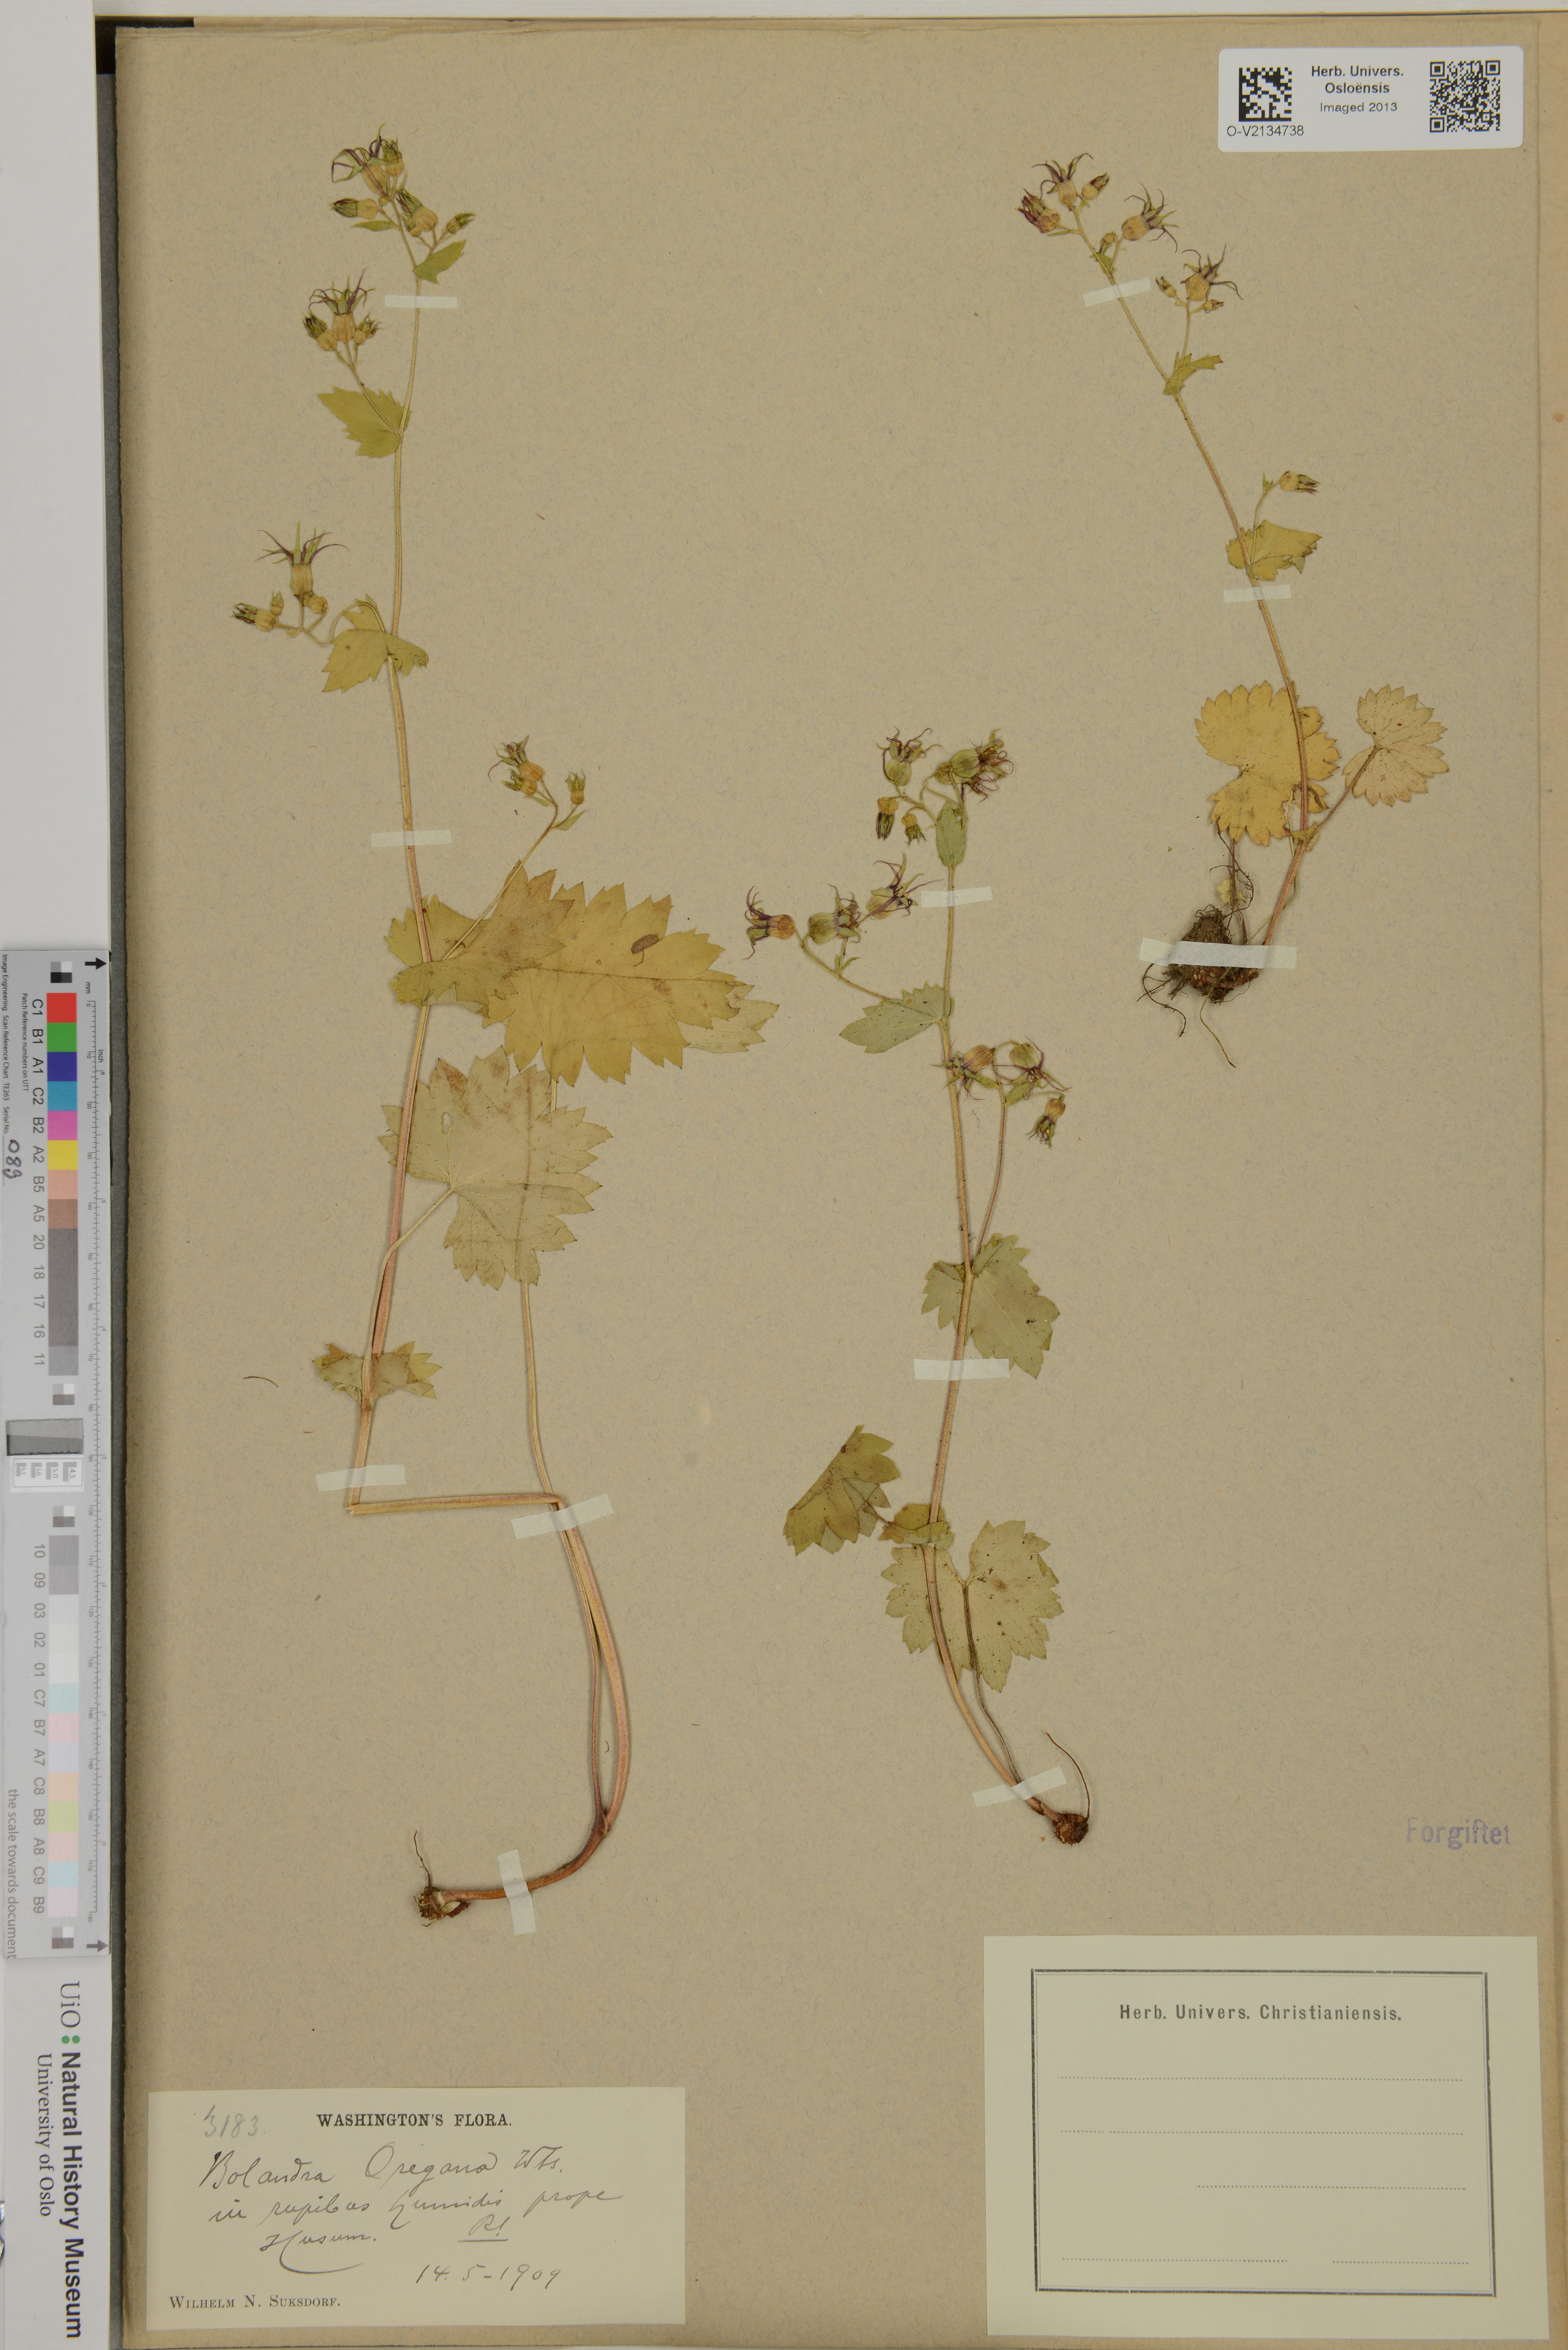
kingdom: Plantae
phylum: Tracheophyta
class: Magnoliopsida
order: Saxifragales
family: Saxifragaceae
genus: Bolandra
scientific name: Bolandra oregana
